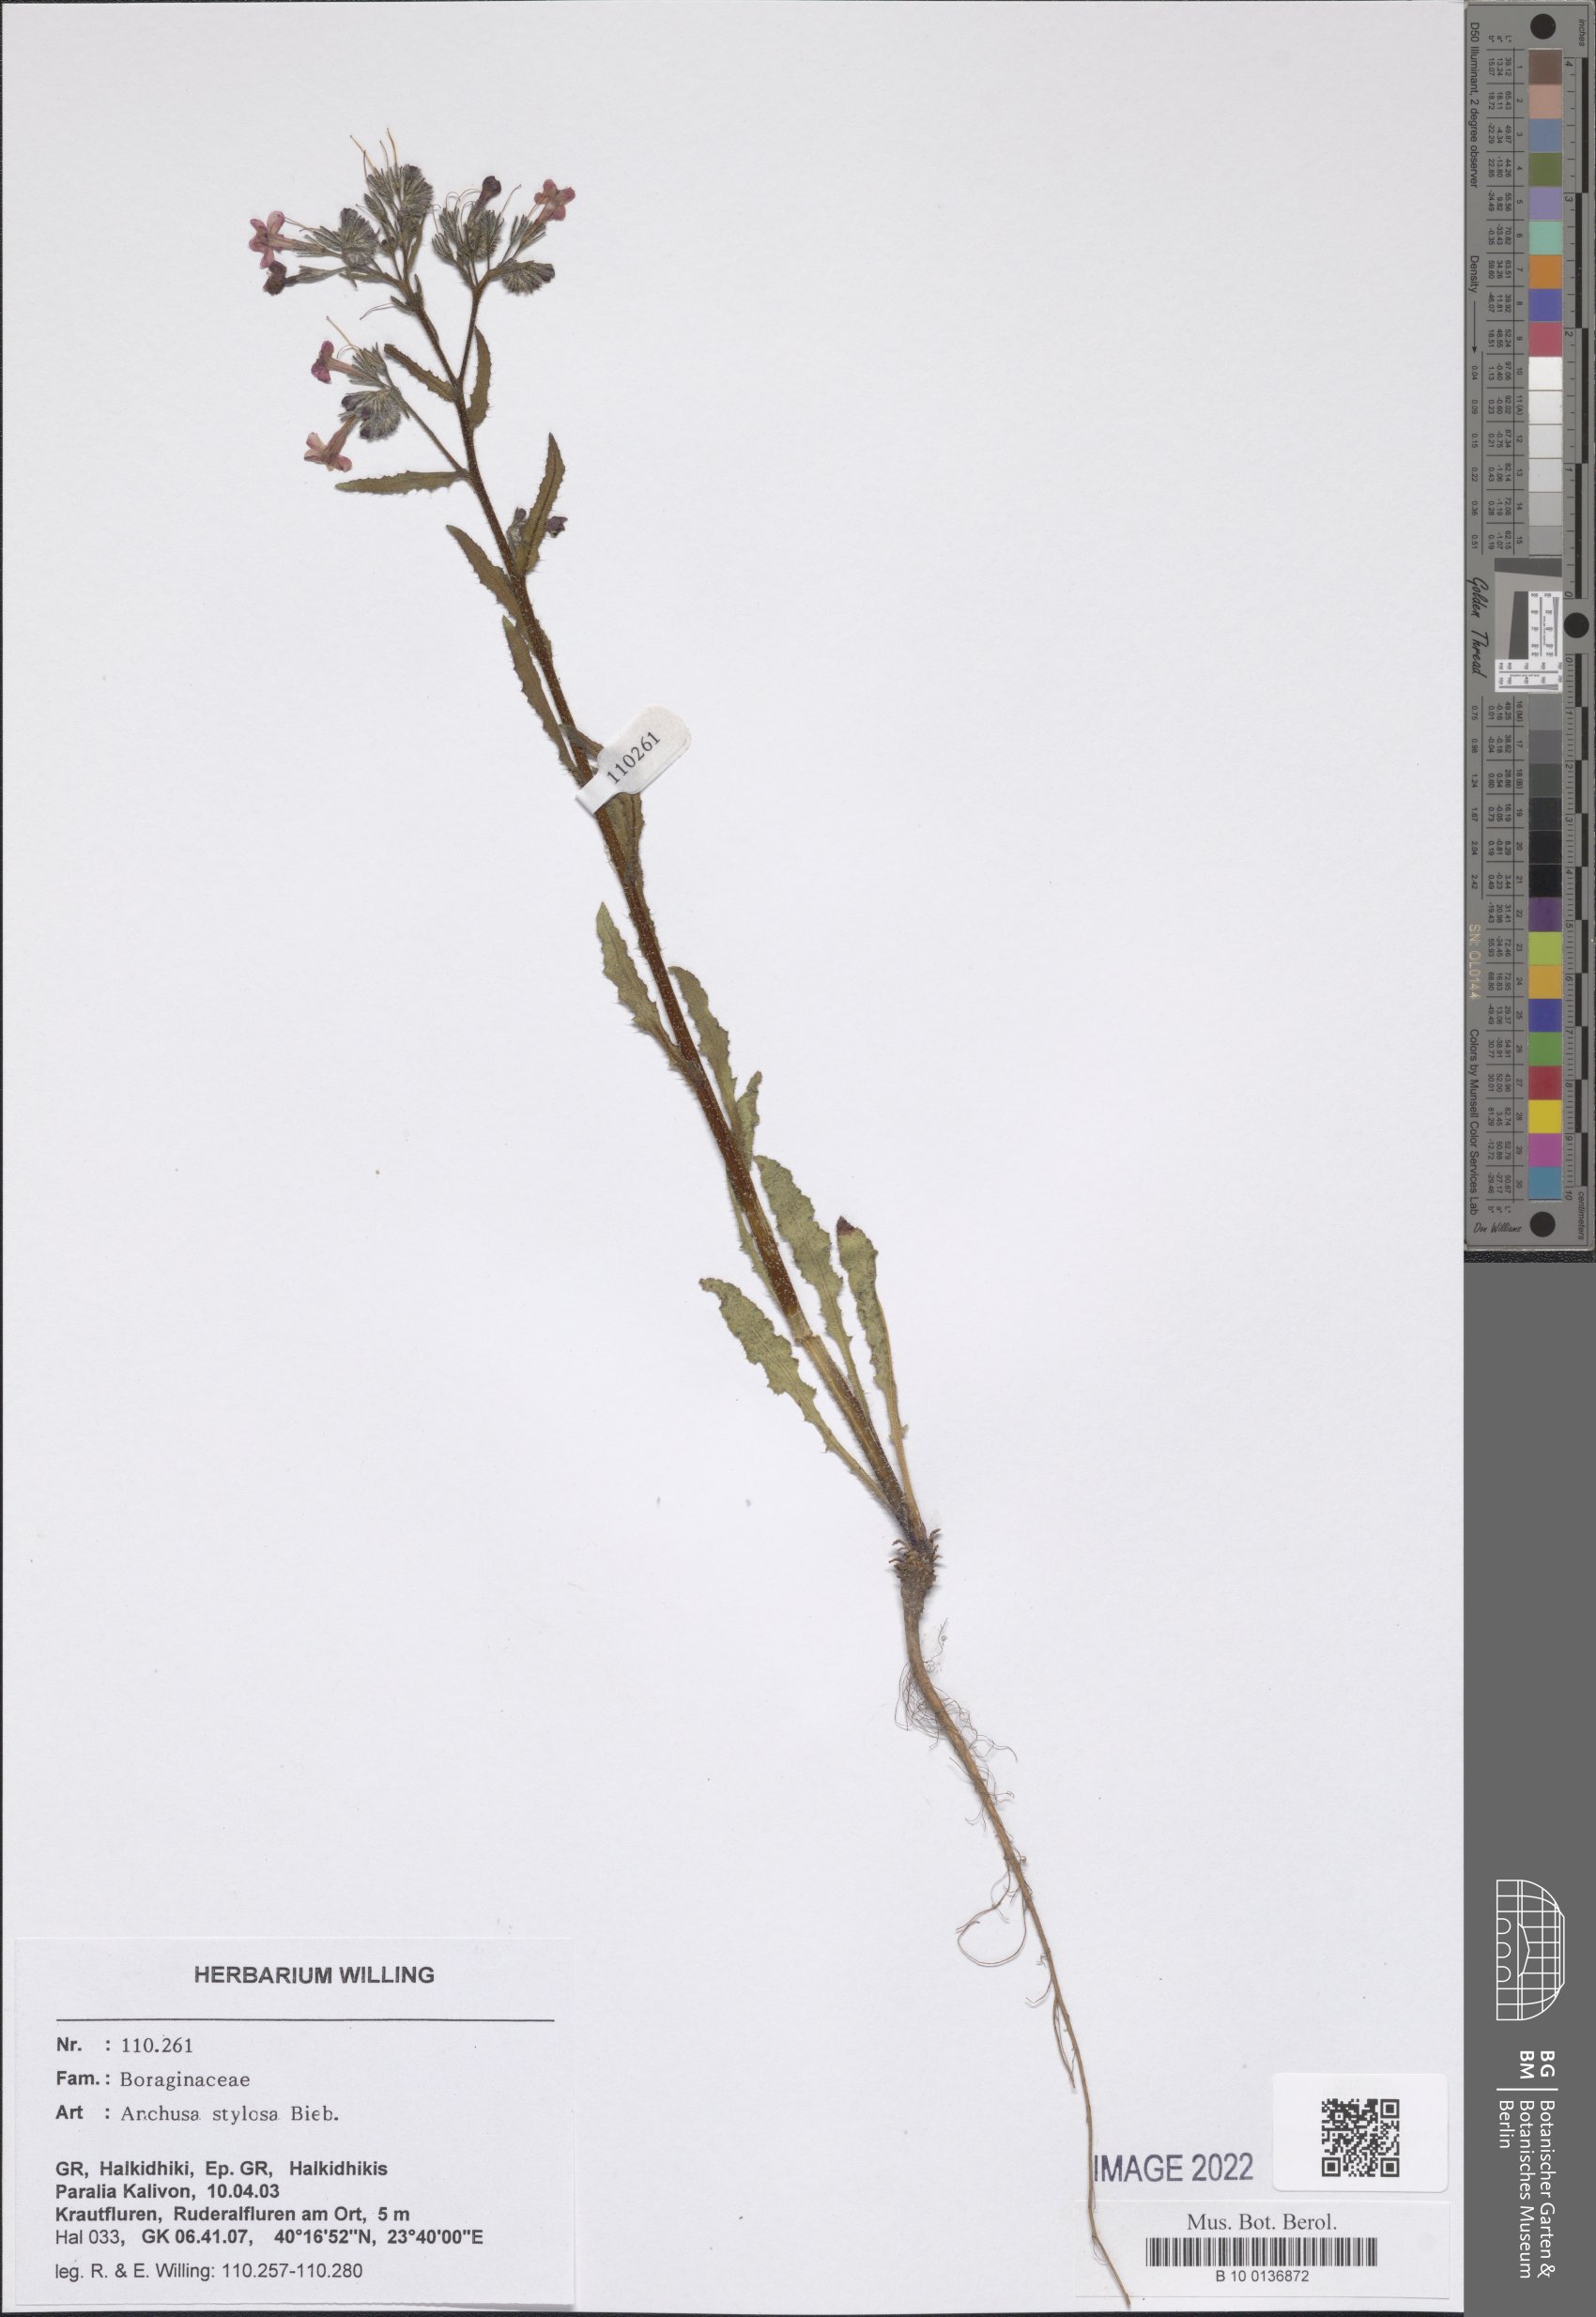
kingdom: Plantae
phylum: Tracheophyta
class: Magnoliopsida
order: Boraginales
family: Boraginaceae
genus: Anchusa
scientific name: Anchusa stylosa
